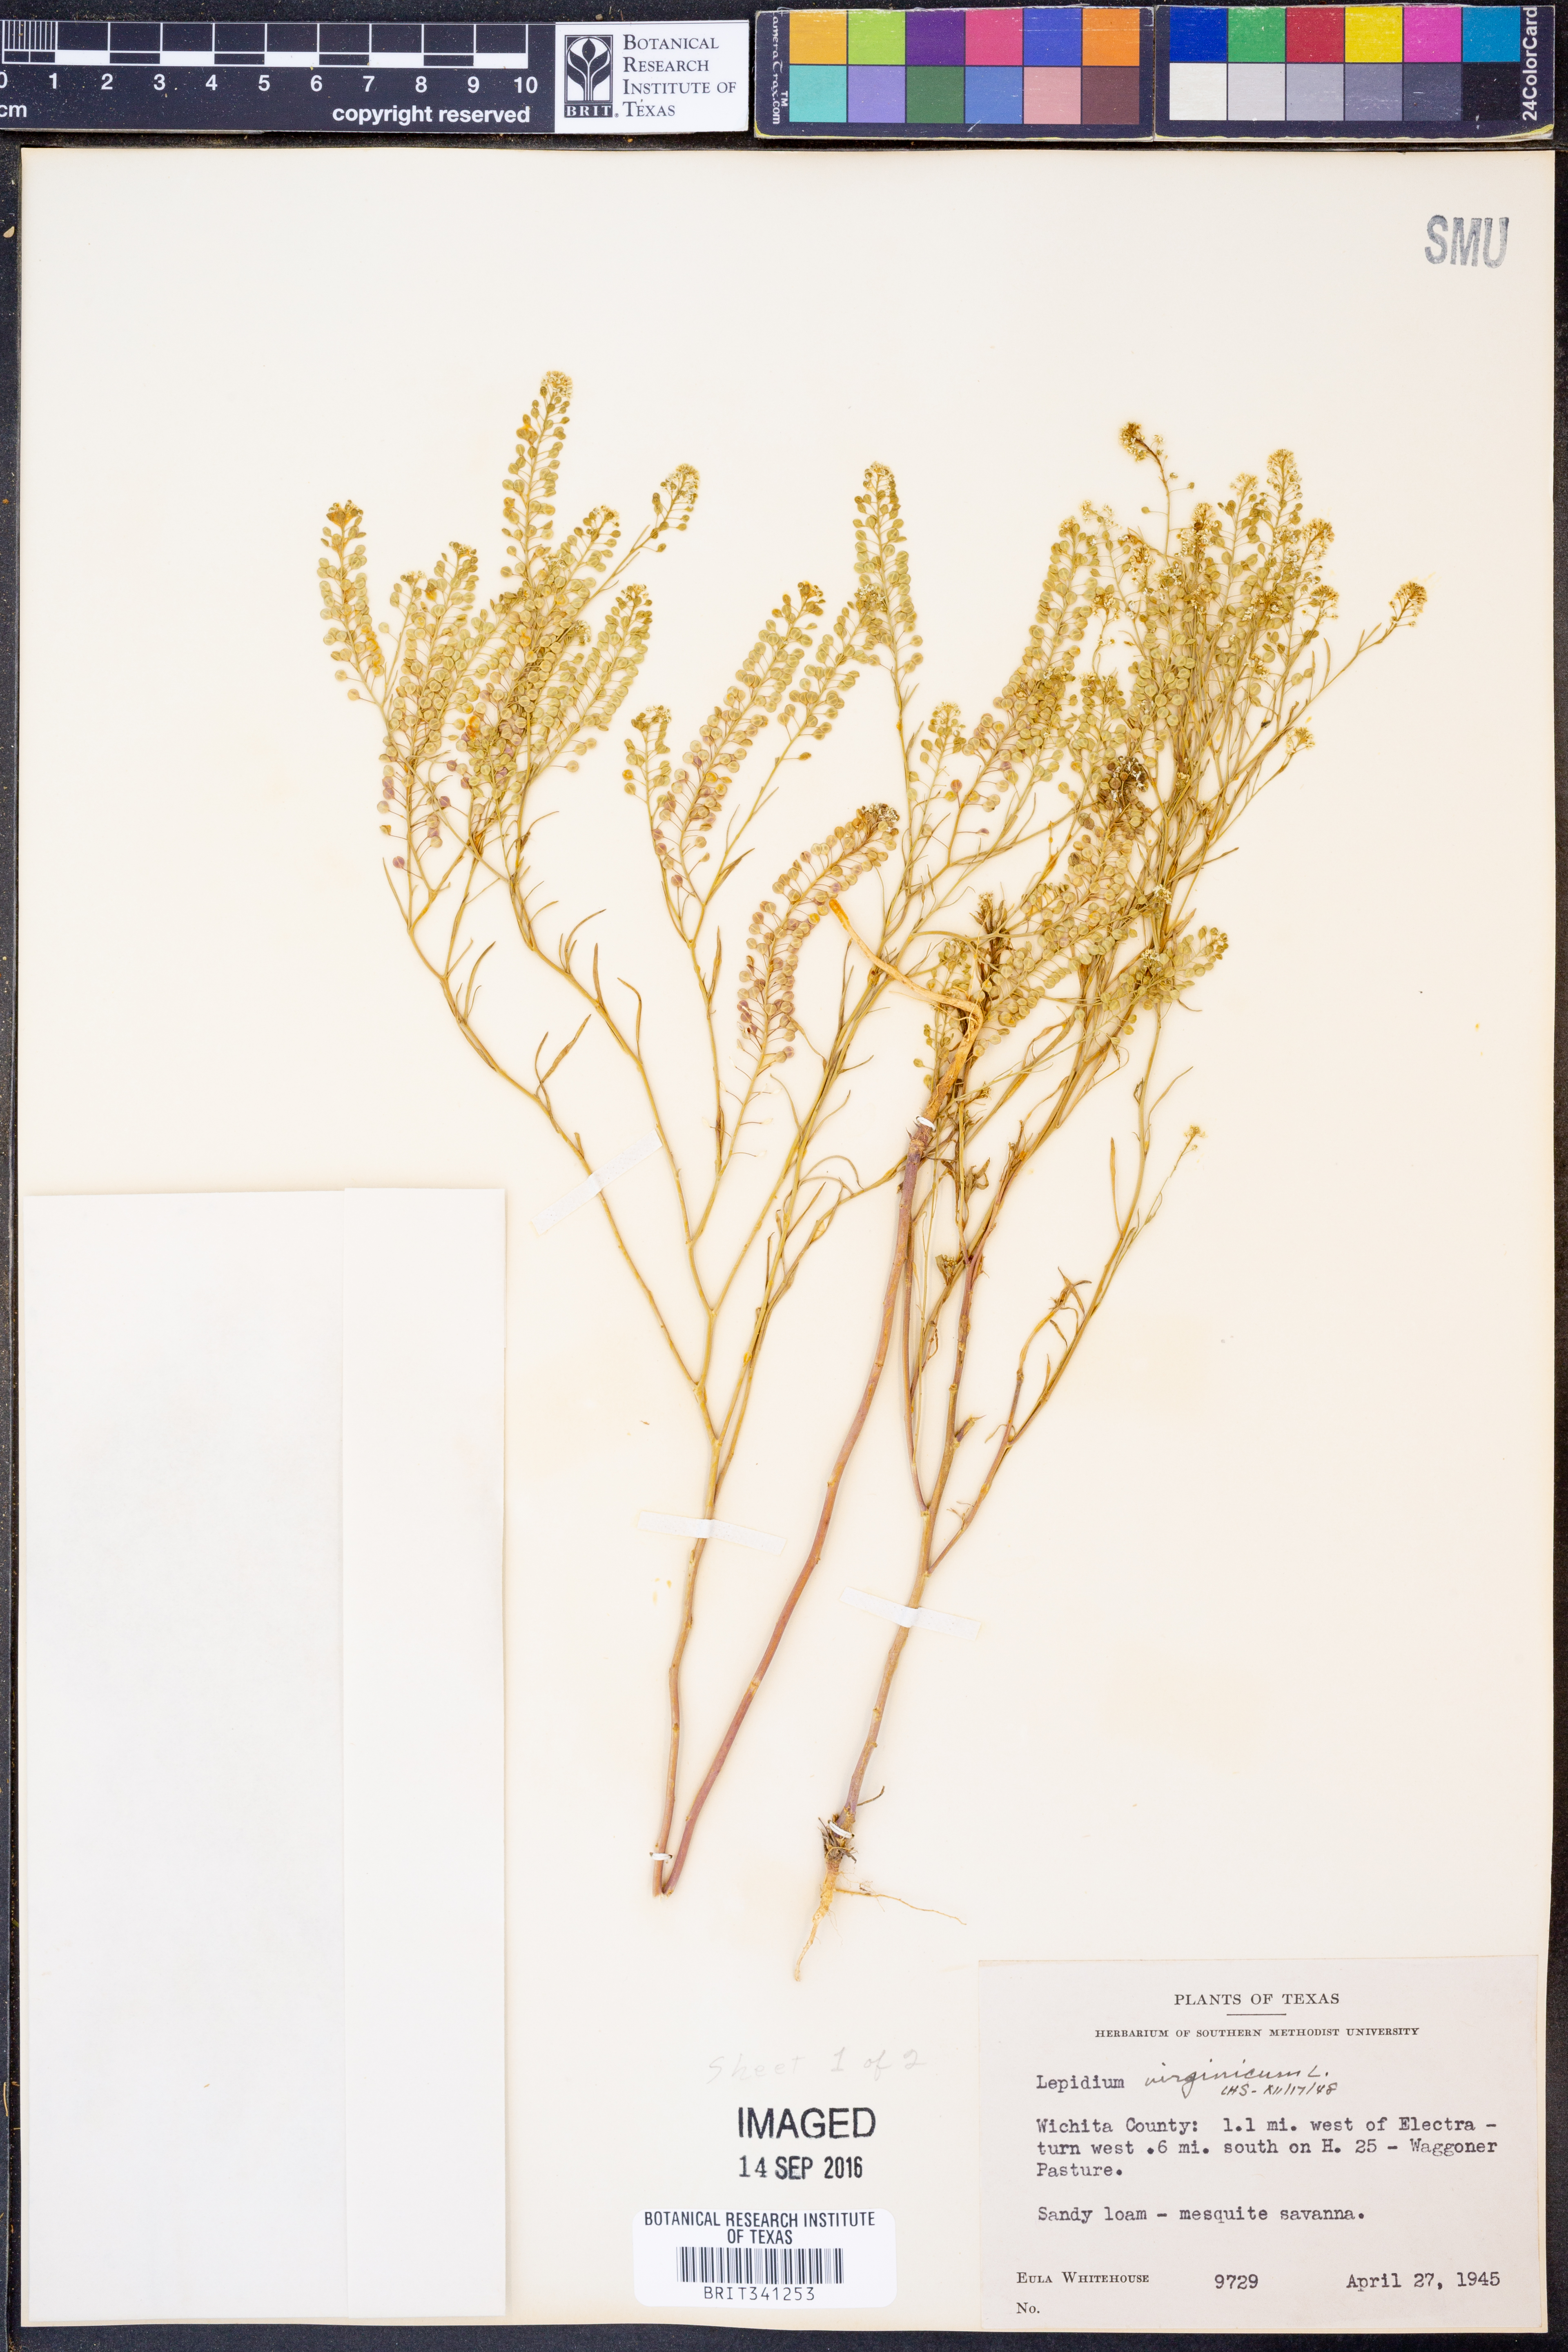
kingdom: Plantae
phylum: Tracheophyta
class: Magnoliopsida
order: Brassicales
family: Brassicaceae
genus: Lepidium
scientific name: Lepidium virginicum
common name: Least pepperwort
